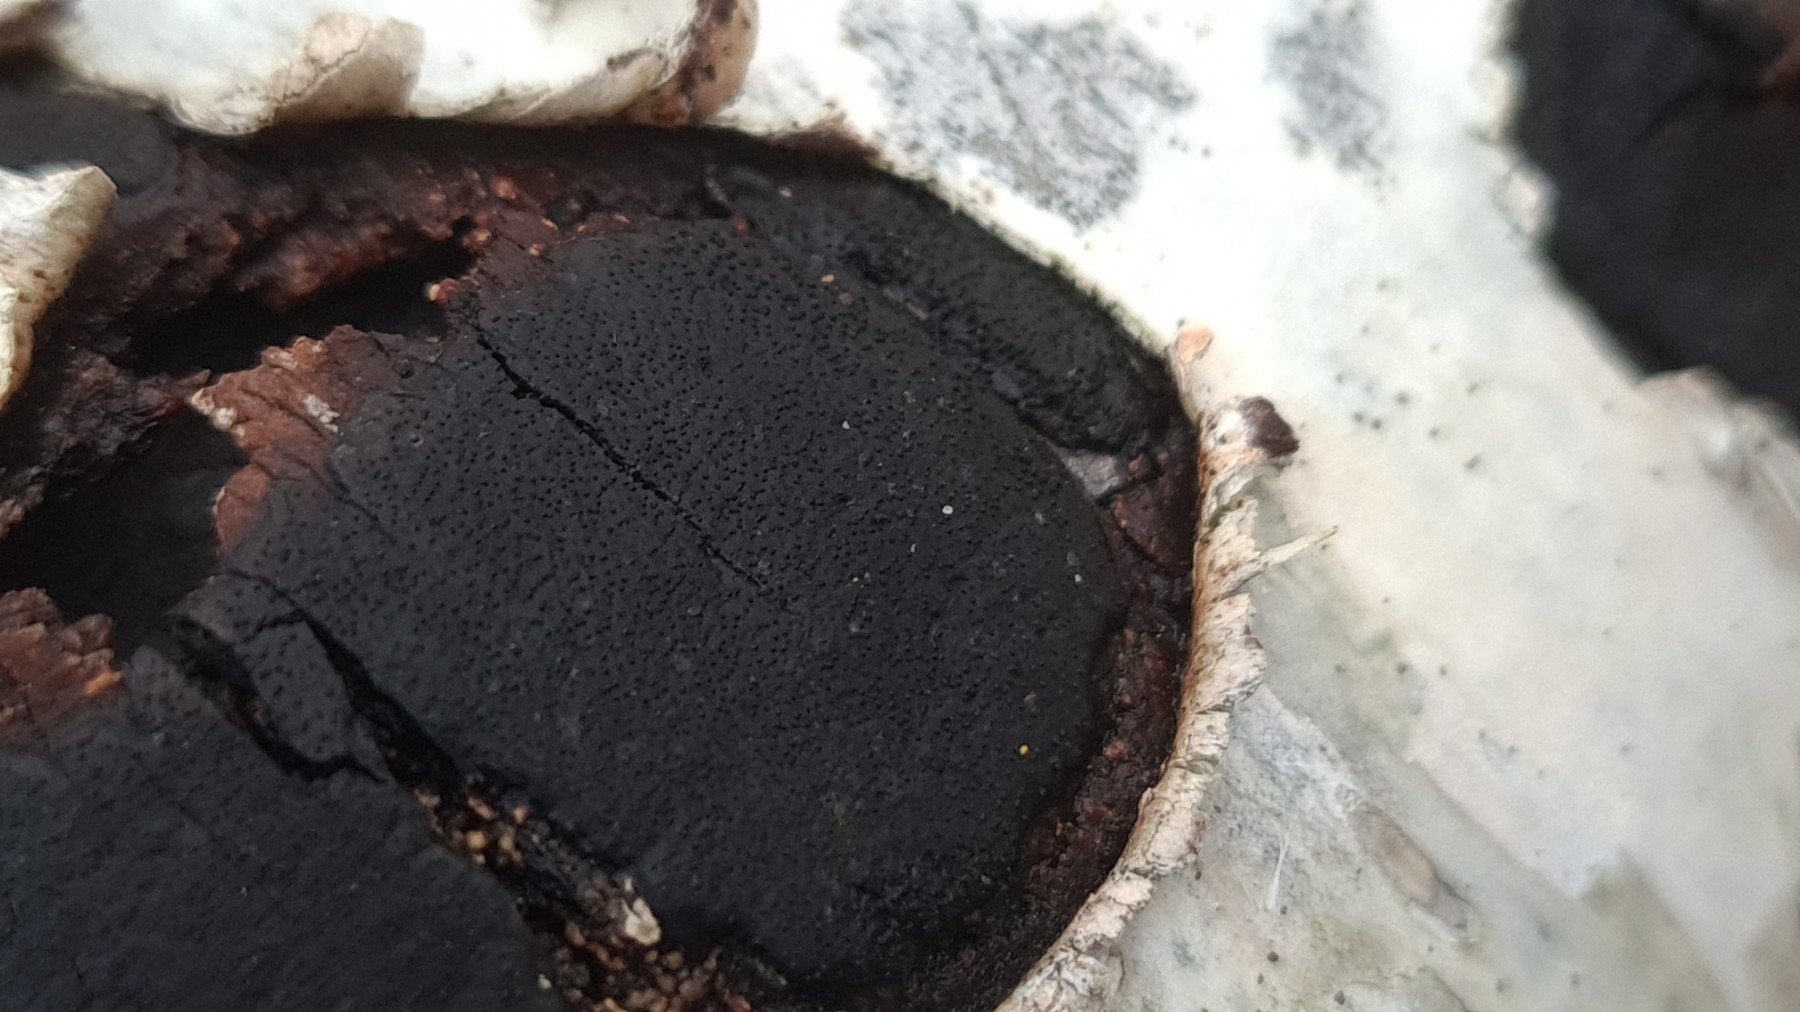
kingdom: Fungi
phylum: Ascomycota
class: Sordariomycetes
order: Xylariales
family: Diatrypaceae
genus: Diatrype
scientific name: Diatrype
